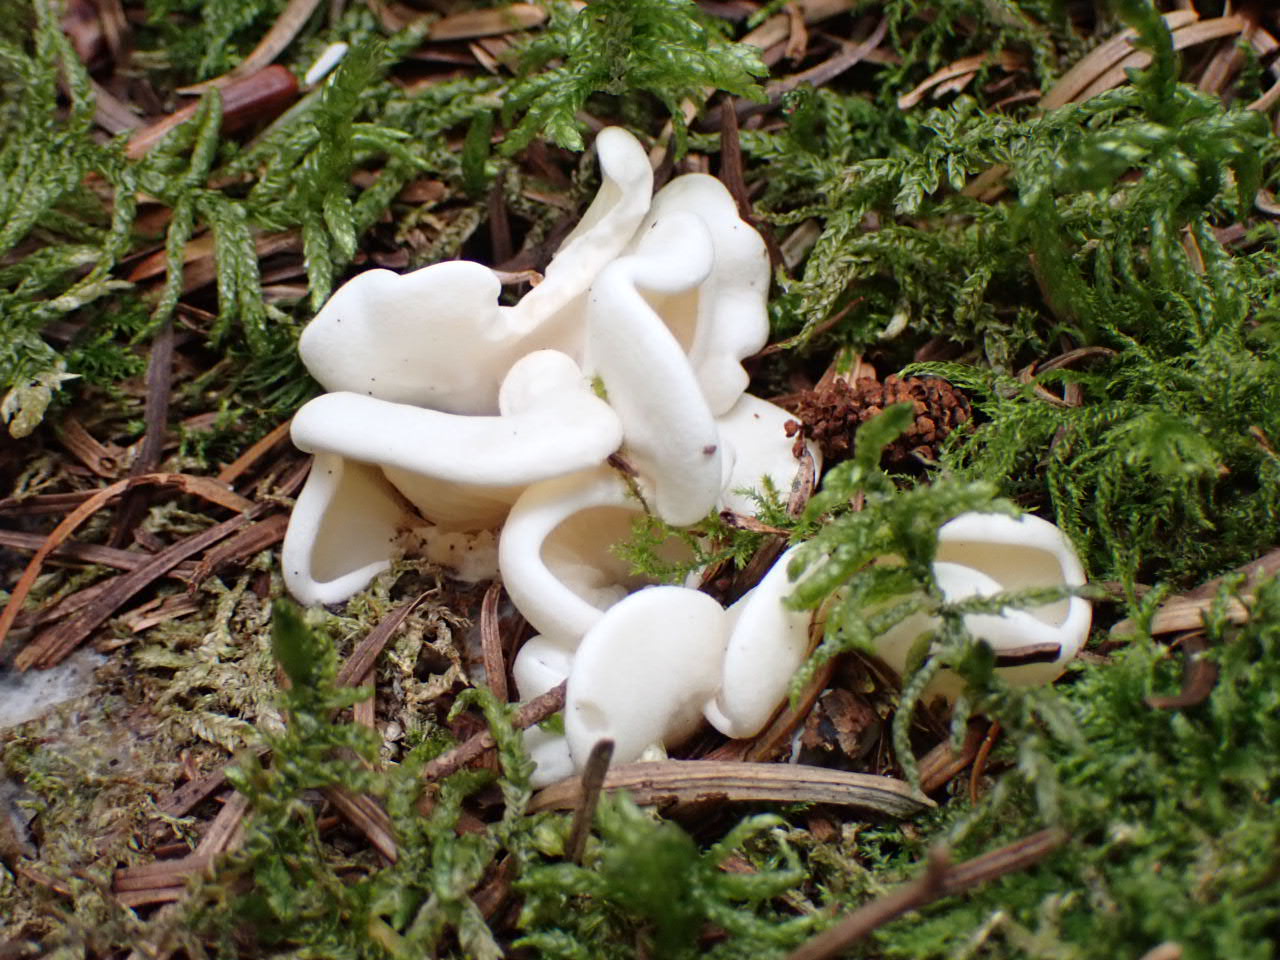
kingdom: Fungi
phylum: Basidiomycota
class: Agaricomycetes
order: Agaricales
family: Marasmiaceae
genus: Pleurocybella
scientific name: Pleurocybella porrigens
